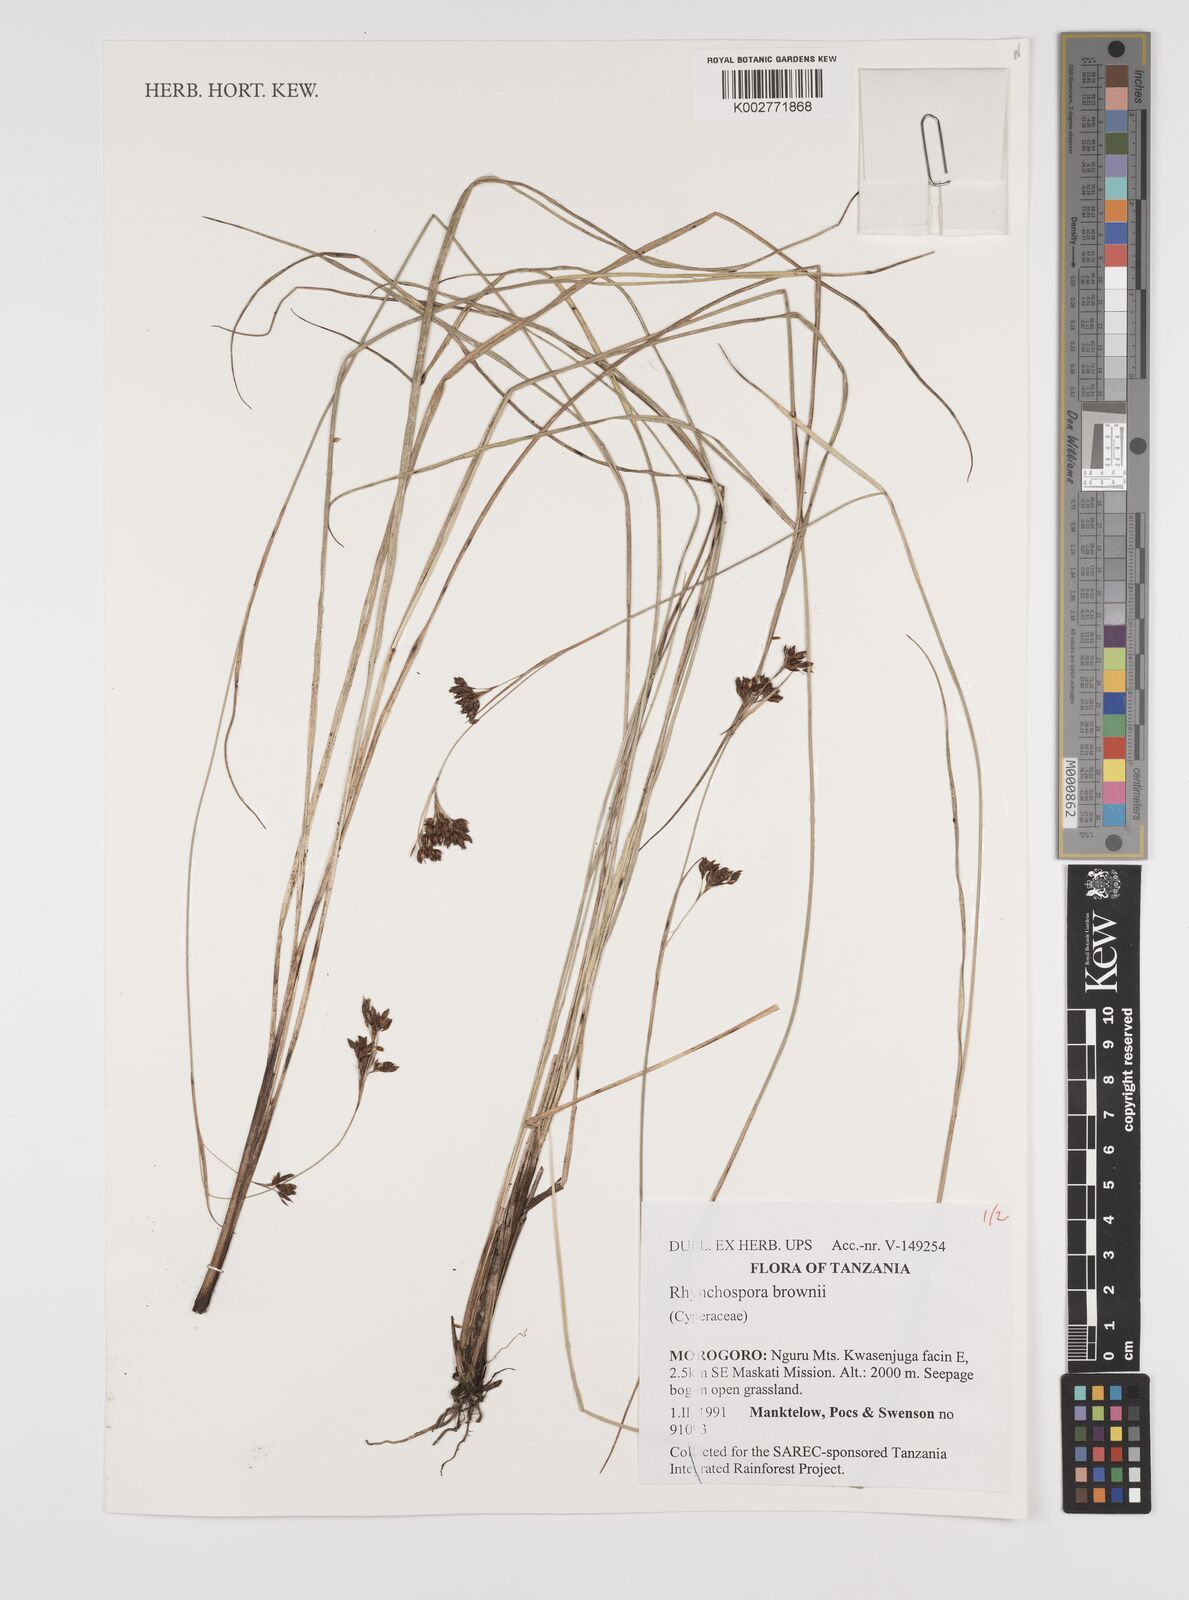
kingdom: Plantae
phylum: Tracheophyta
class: Liliopsida
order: Poales
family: Cyperaceae
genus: Rhynchospora
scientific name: Rhynchospora brownii
